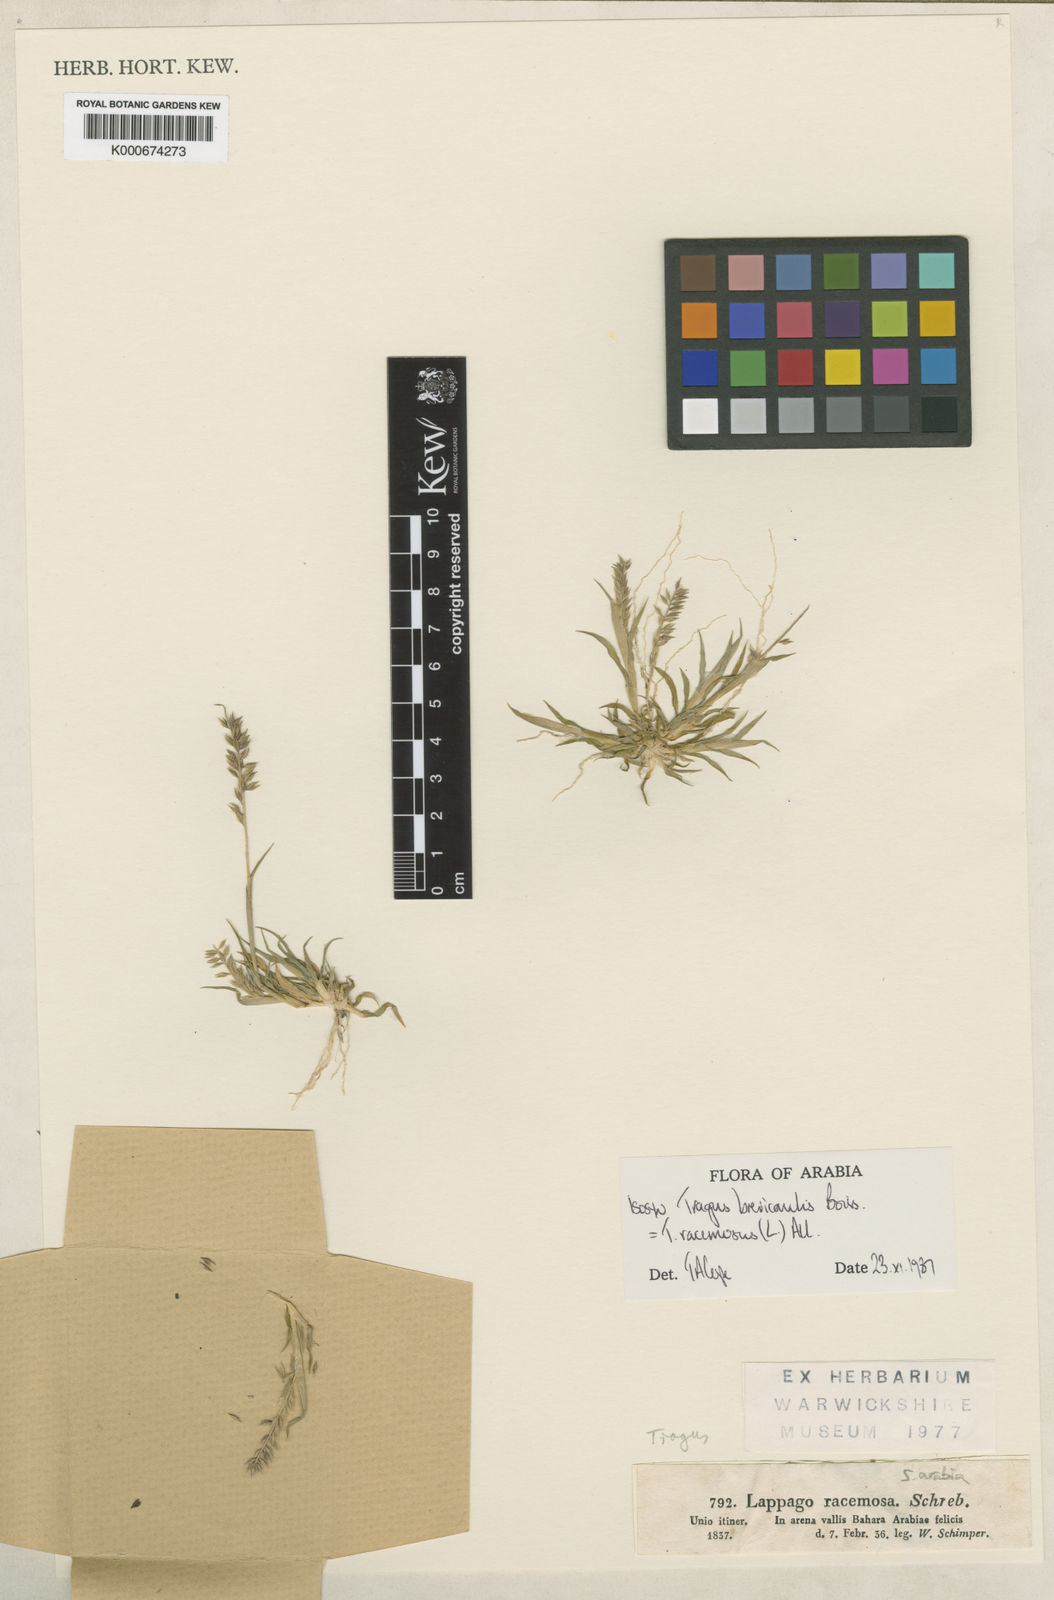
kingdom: Plantae
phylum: Tracheophyta
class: Liliopsida
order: Poales
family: Poaceae
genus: Tragus
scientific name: Tragus racemosus
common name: European bur-grass
